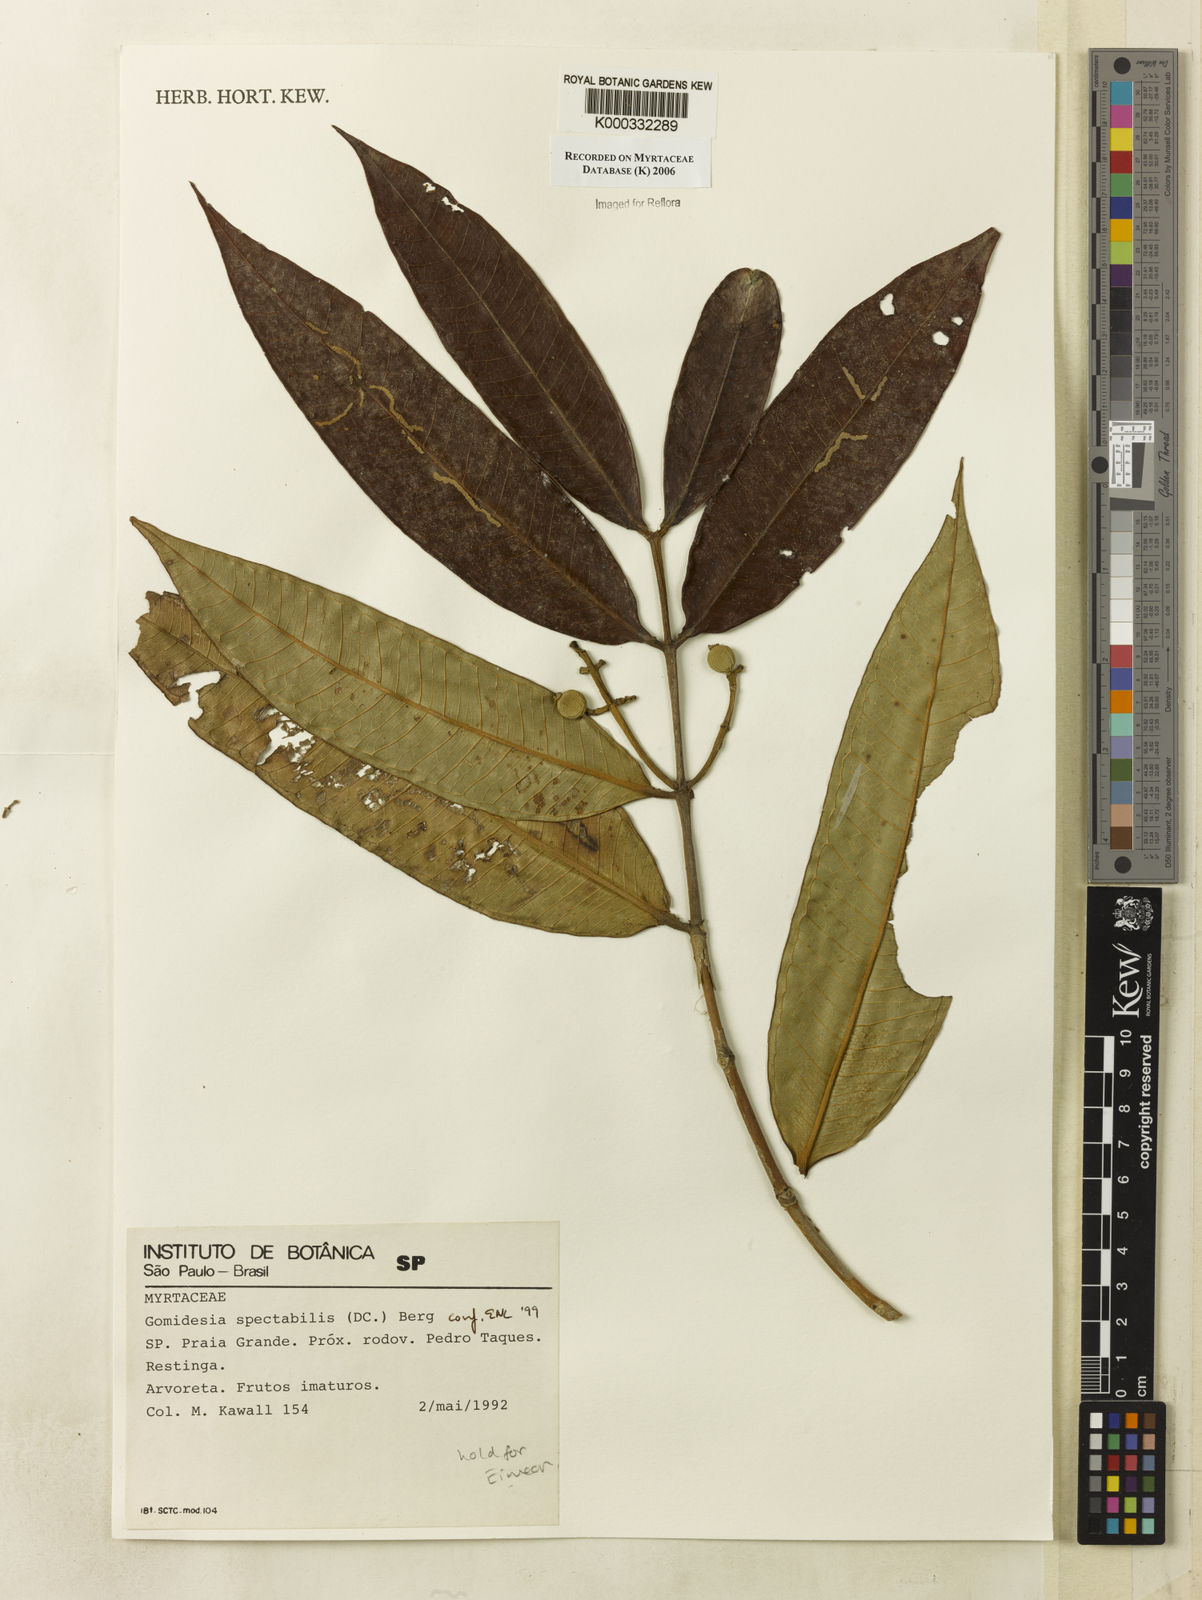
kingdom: Plantae
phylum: Tracheophyta
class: Magnoliopsida
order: Myrtales
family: Myrtaceae
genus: Myrcia
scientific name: Myrcia spectabilis
